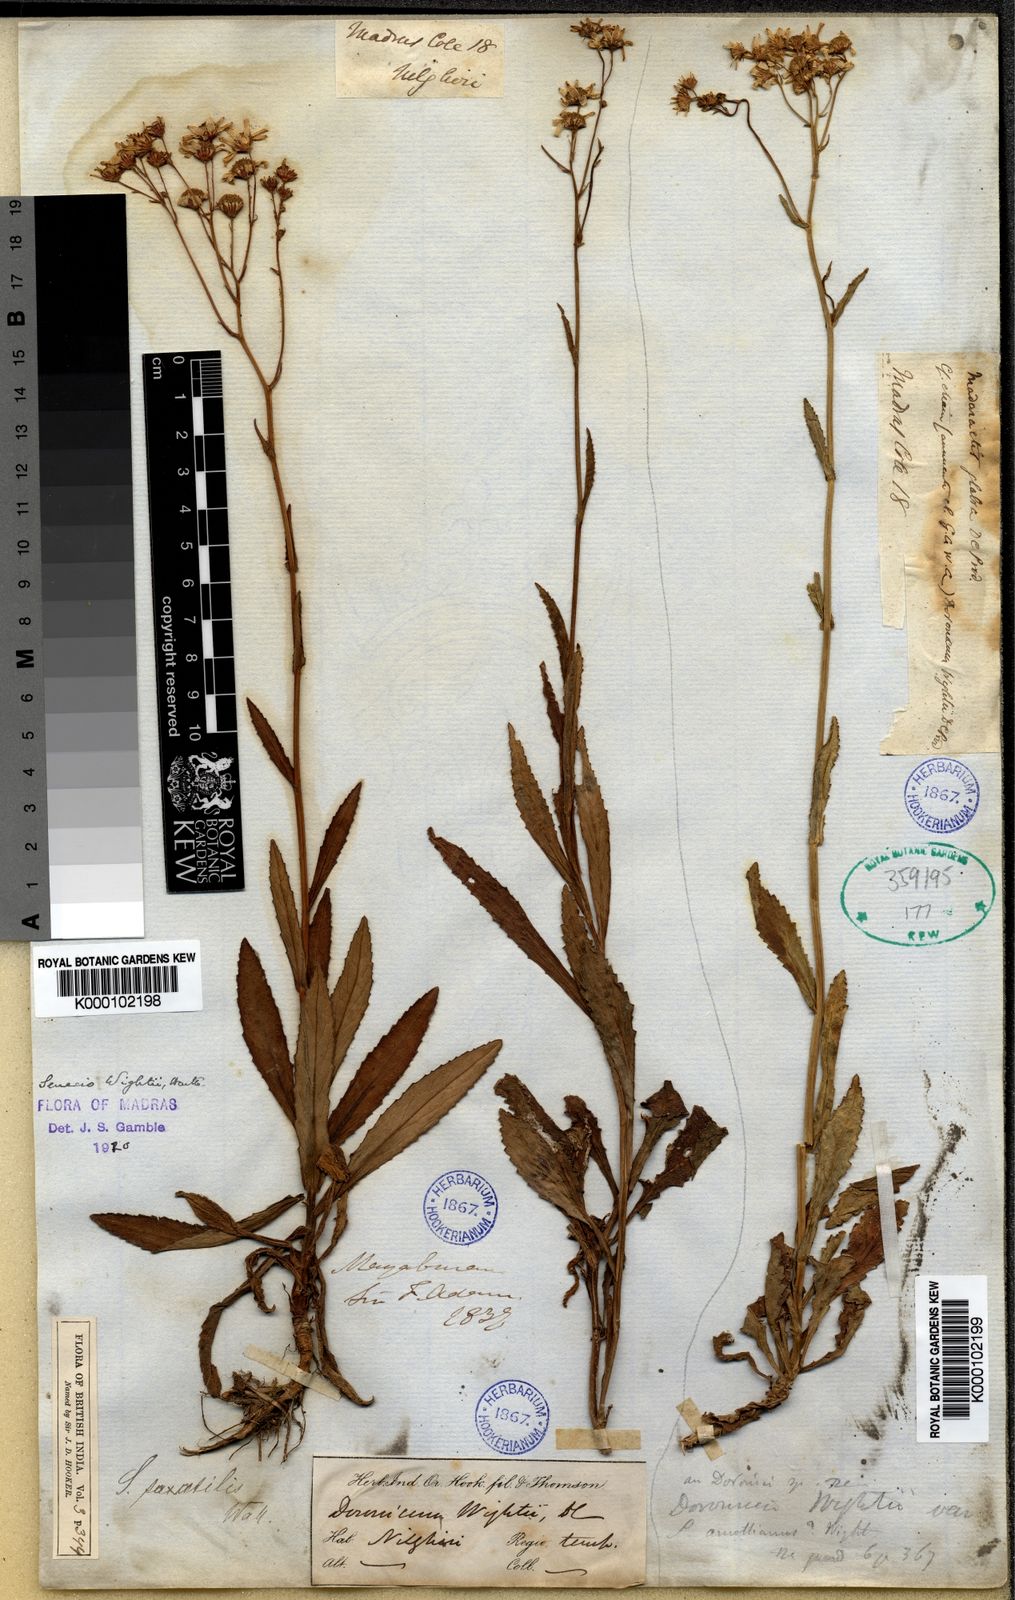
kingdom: Plantae
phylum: Tracheophyta
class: Magnoliopsida
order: Asterales
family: Asteraceae
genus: Senecio
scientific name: Senecio wightii
